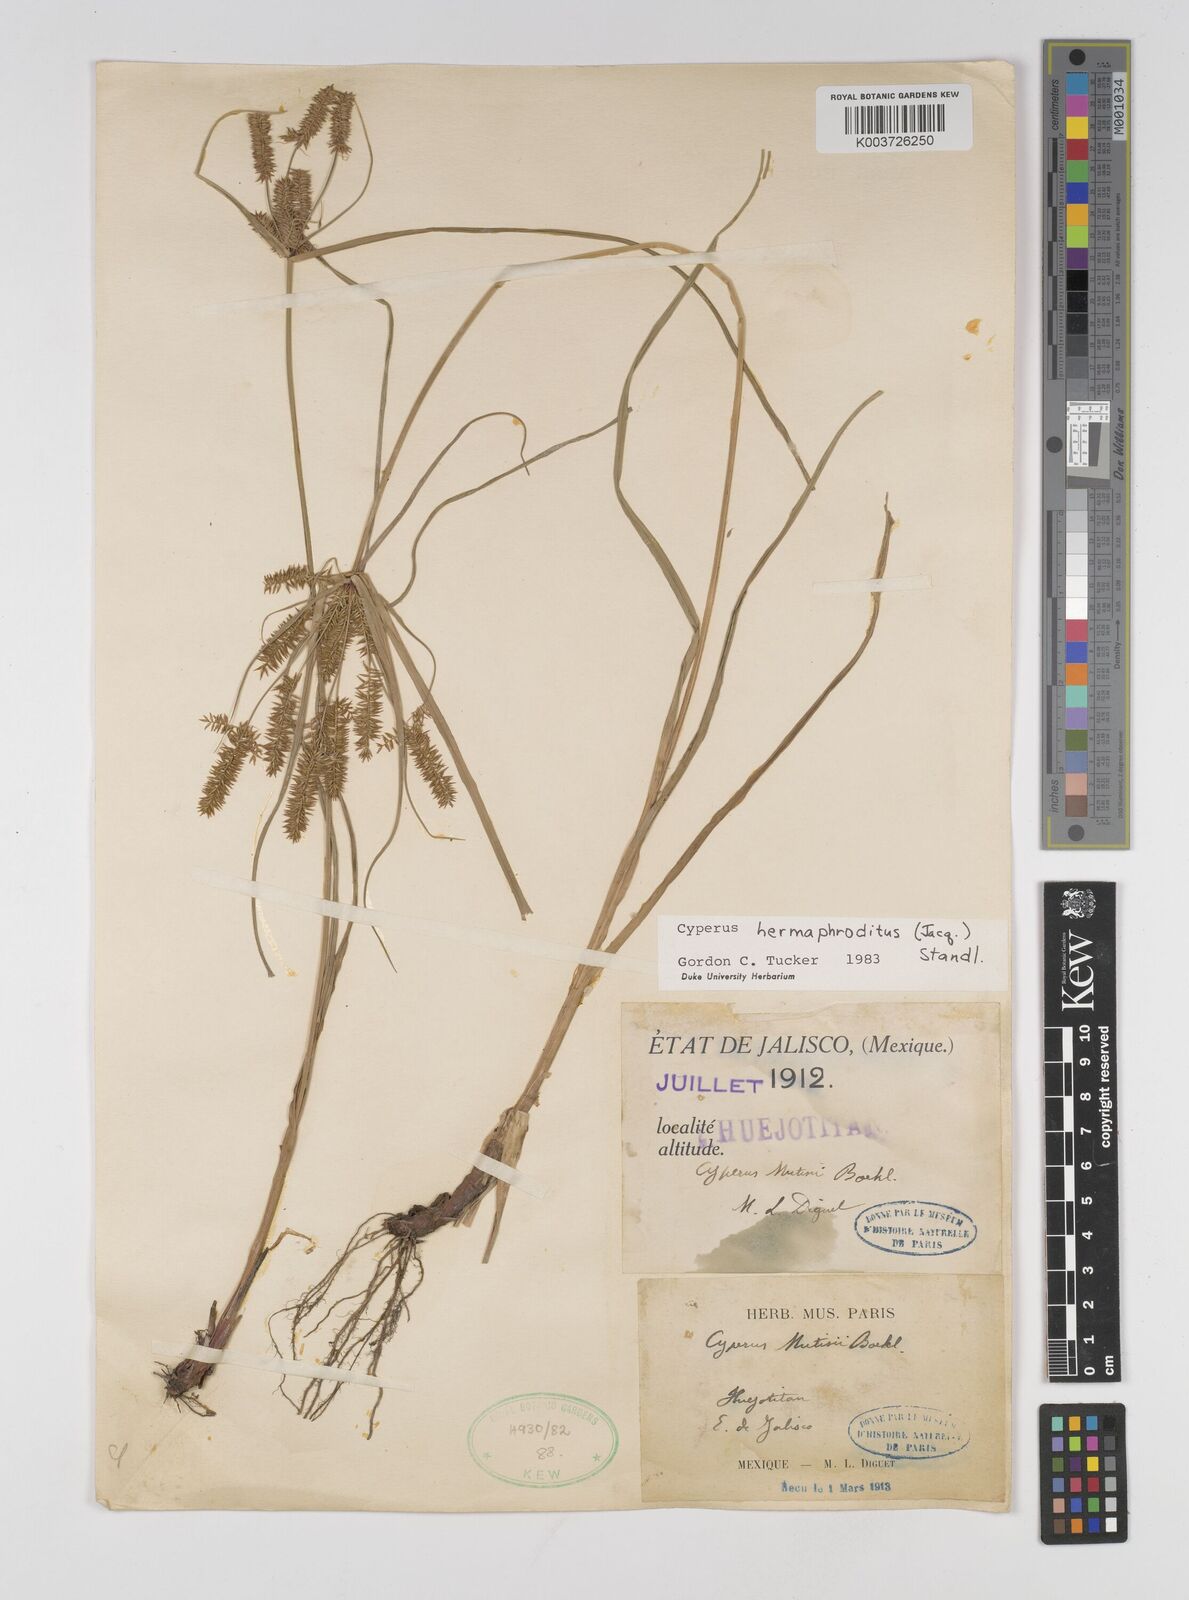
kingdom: Plantae
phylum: Tracheophyta
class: Liliopsida
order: Poales
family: Cyperaceae
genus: Cyperus
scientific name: Cyperus hermaphroditus
